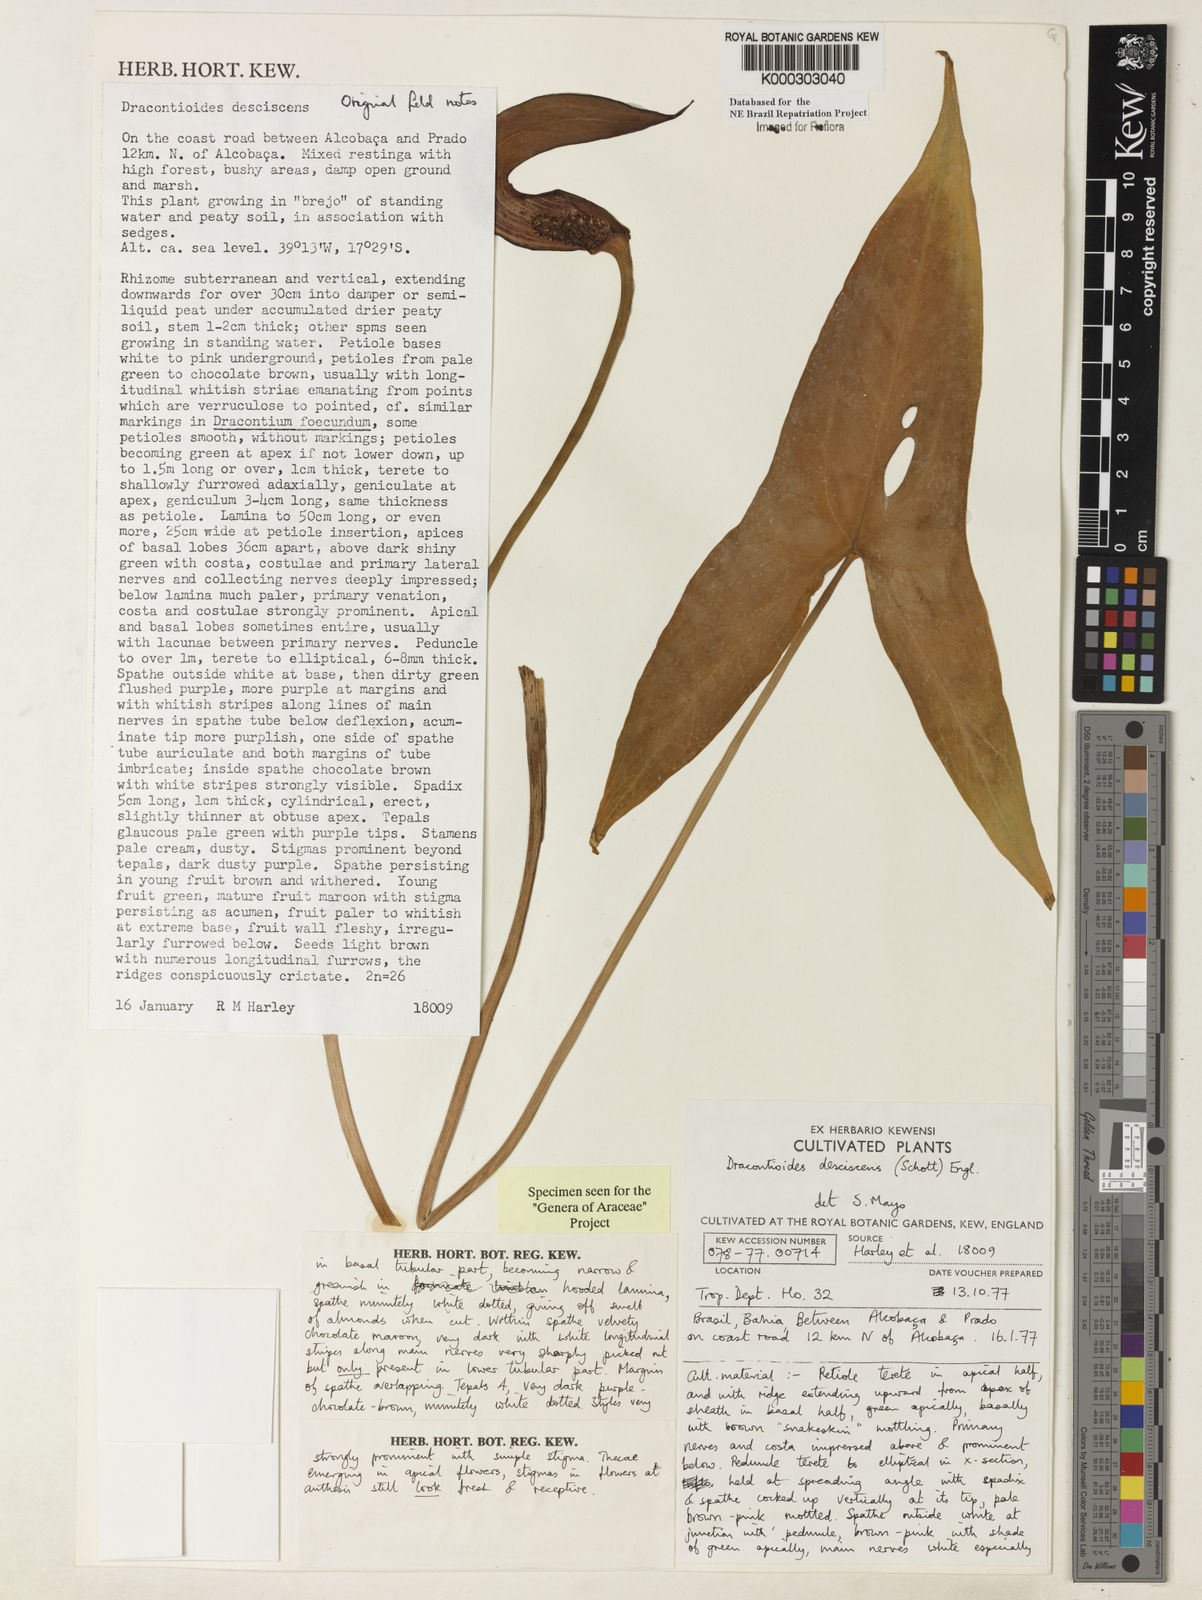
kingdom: Plantae
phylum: Tracheophyta
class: Liliopsida
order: Alismatales
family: Araceae
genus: Dracontioides
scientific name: Dracontioides desciscens
